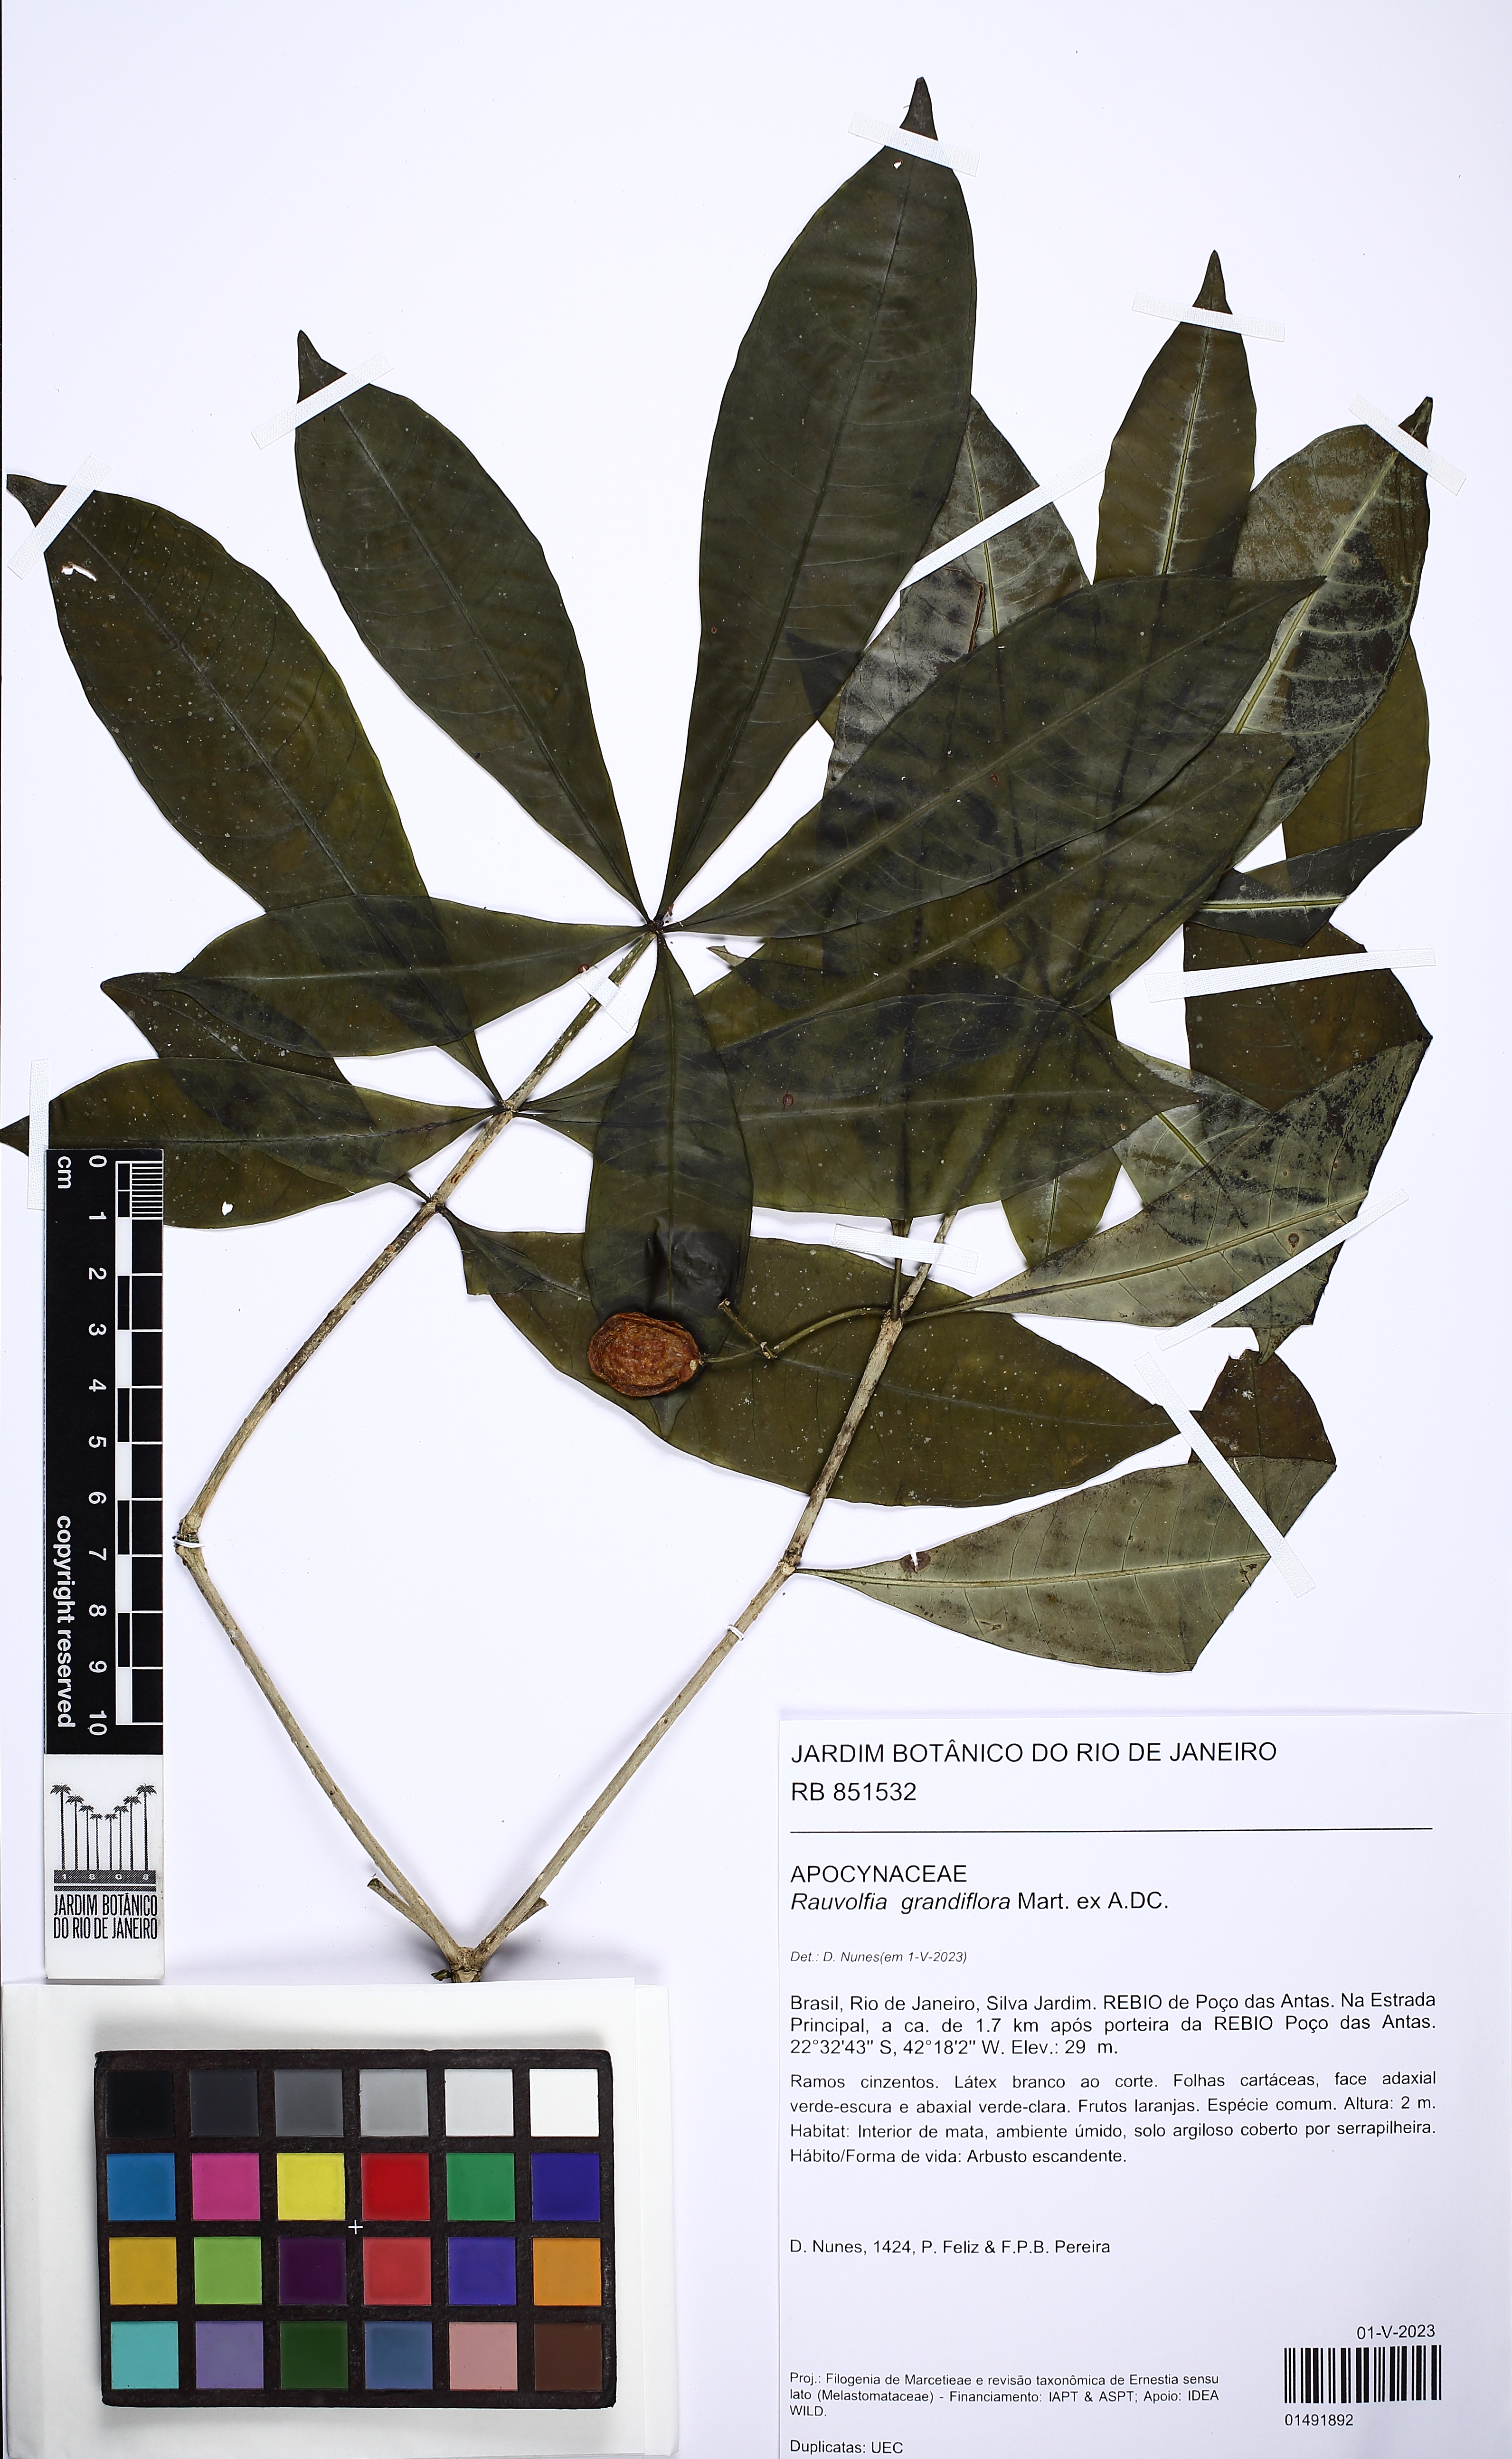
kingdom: Plantae
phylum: Tracheophyta
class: Magnoliopsida
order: Gentianales
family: Apocynaceae
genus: Rauvolfia
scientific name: Rauvolfia grandiflora
